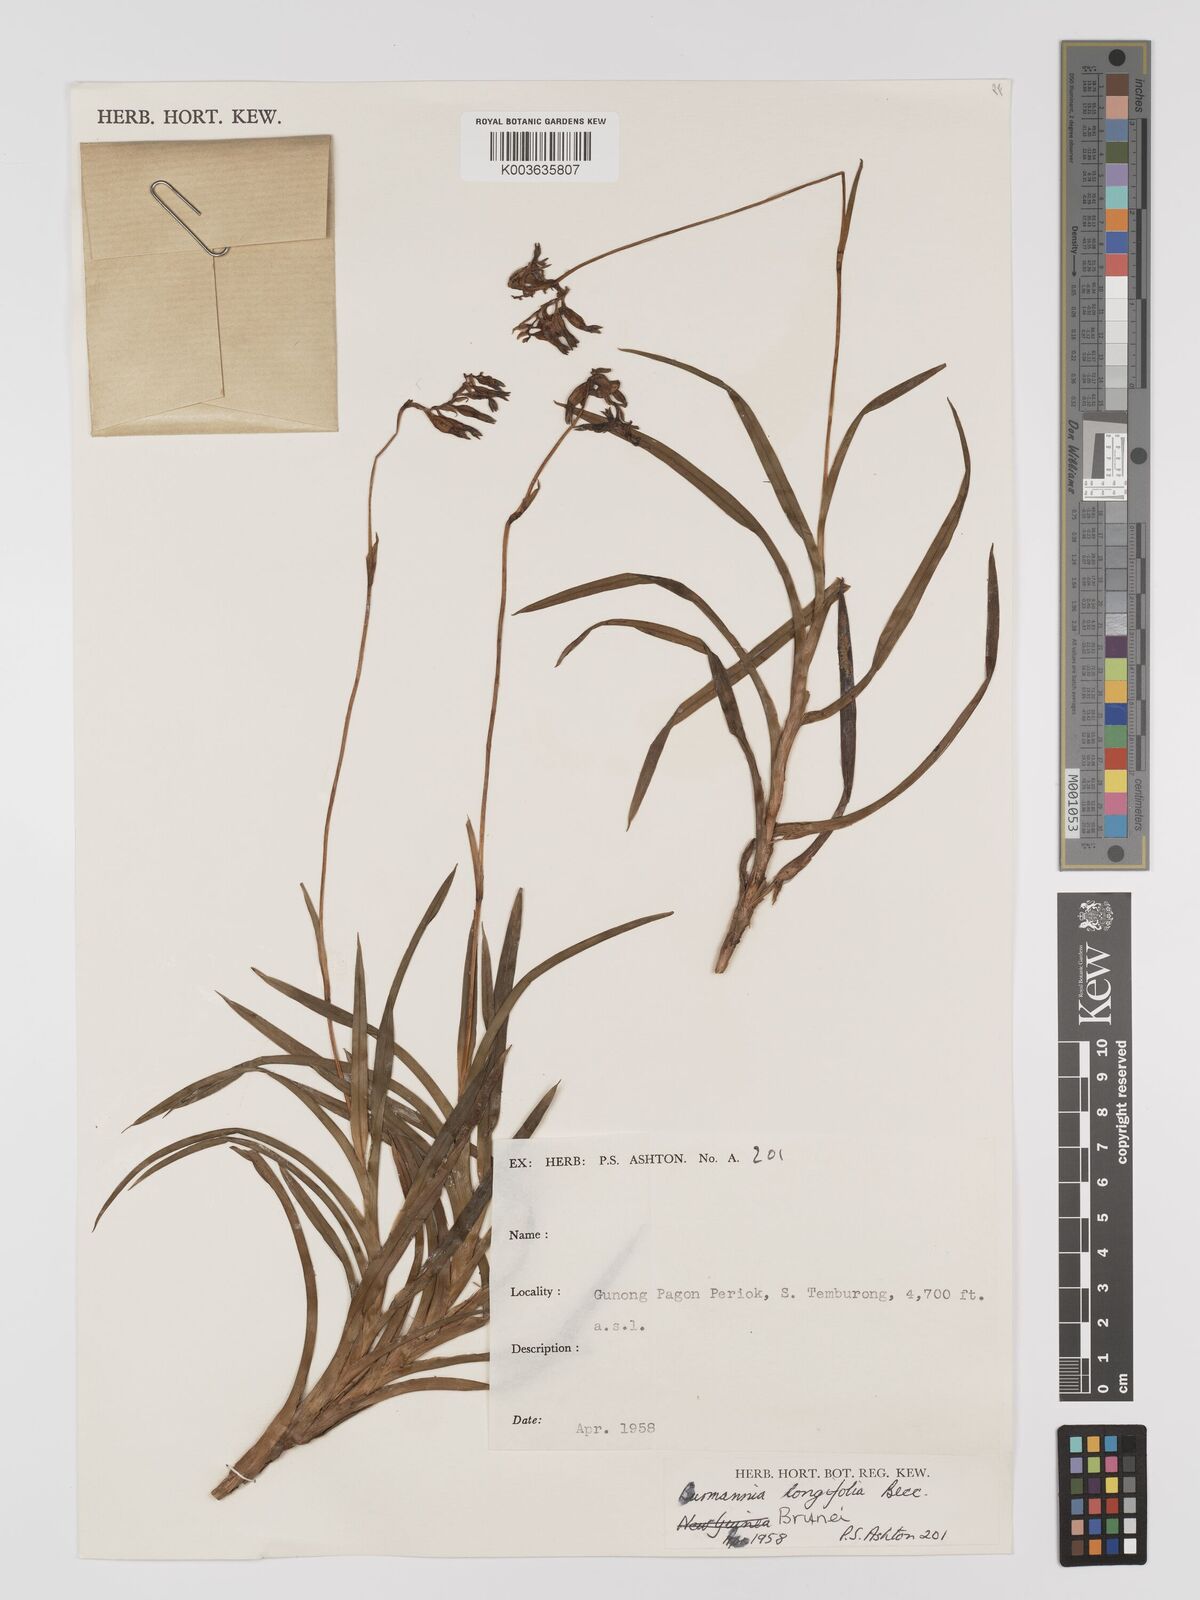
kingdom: Plantae
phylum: Tracheophyta
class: Liliopsida
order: Dioscoreales
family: Burmanniaceae
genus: Burmannia
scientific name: Burmannia longifolia
